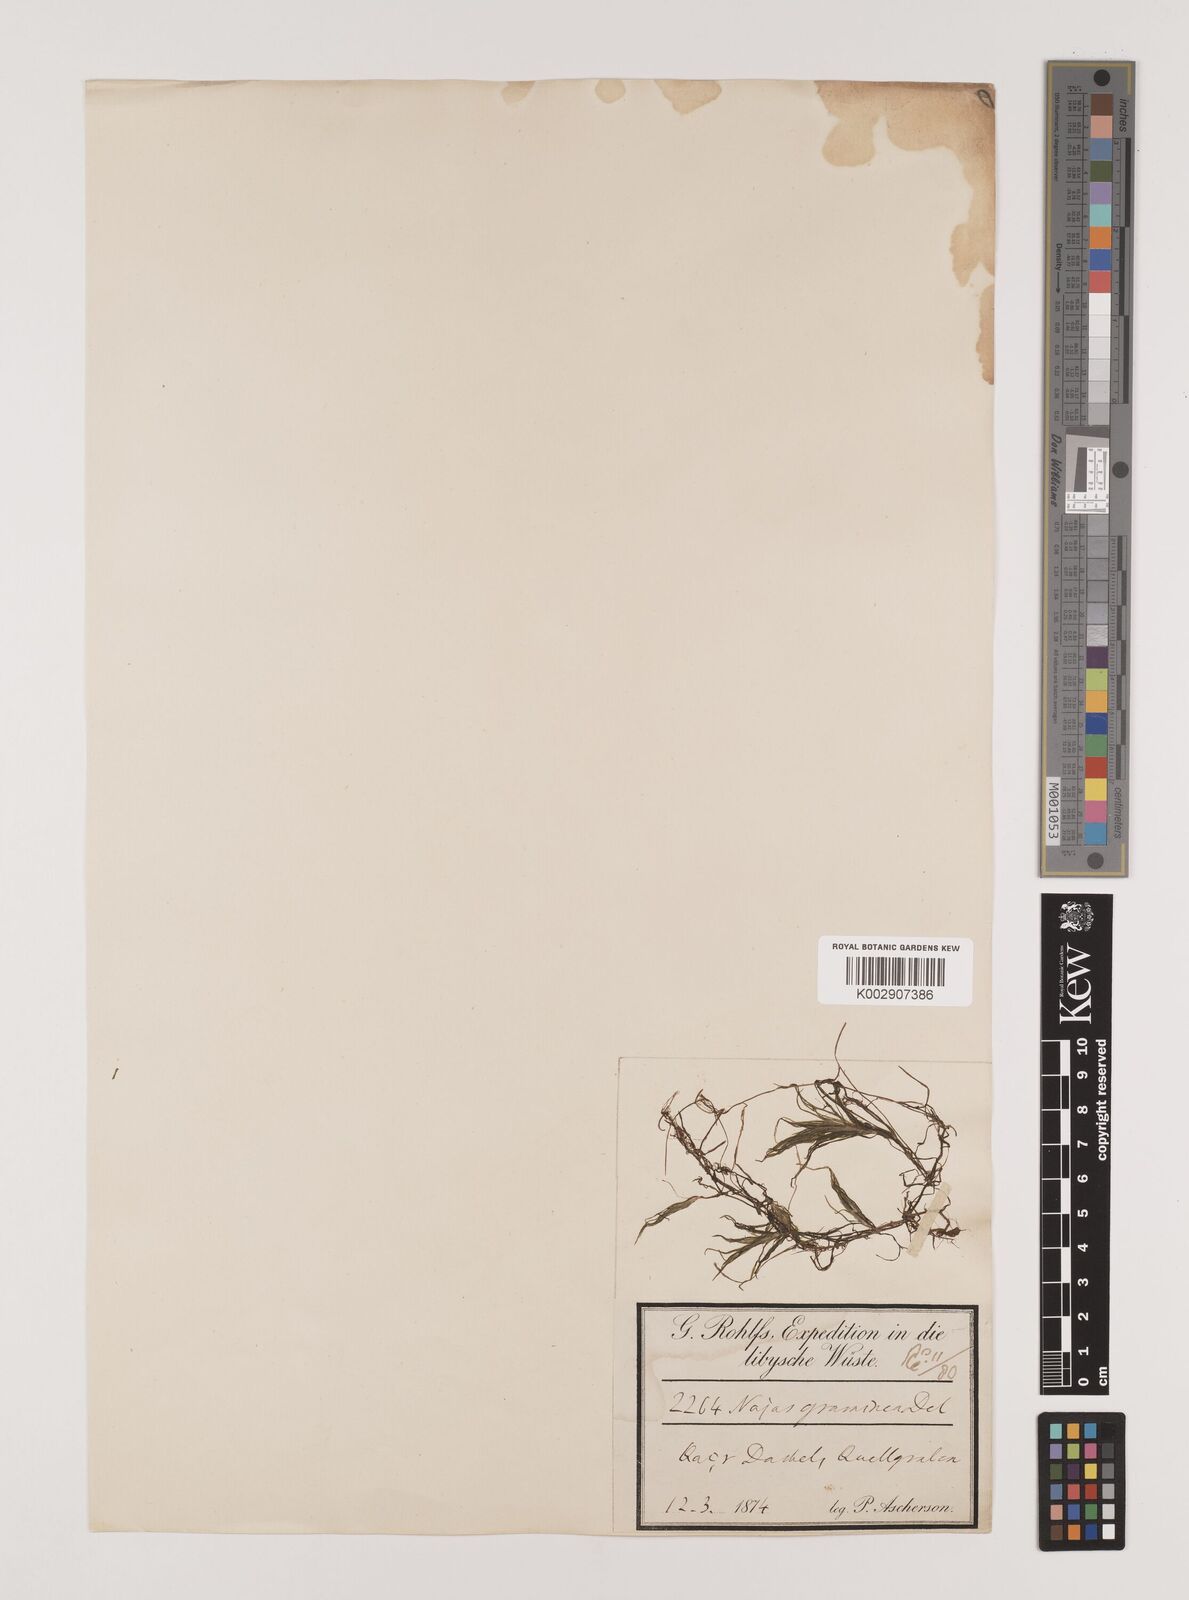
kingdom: Plantae
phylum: Tracheophyta
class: Liliopsida
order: Alismatales
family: Hydrocharitaceae
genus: Najas
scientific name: Najas graminea
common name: Ricefield waternymph
